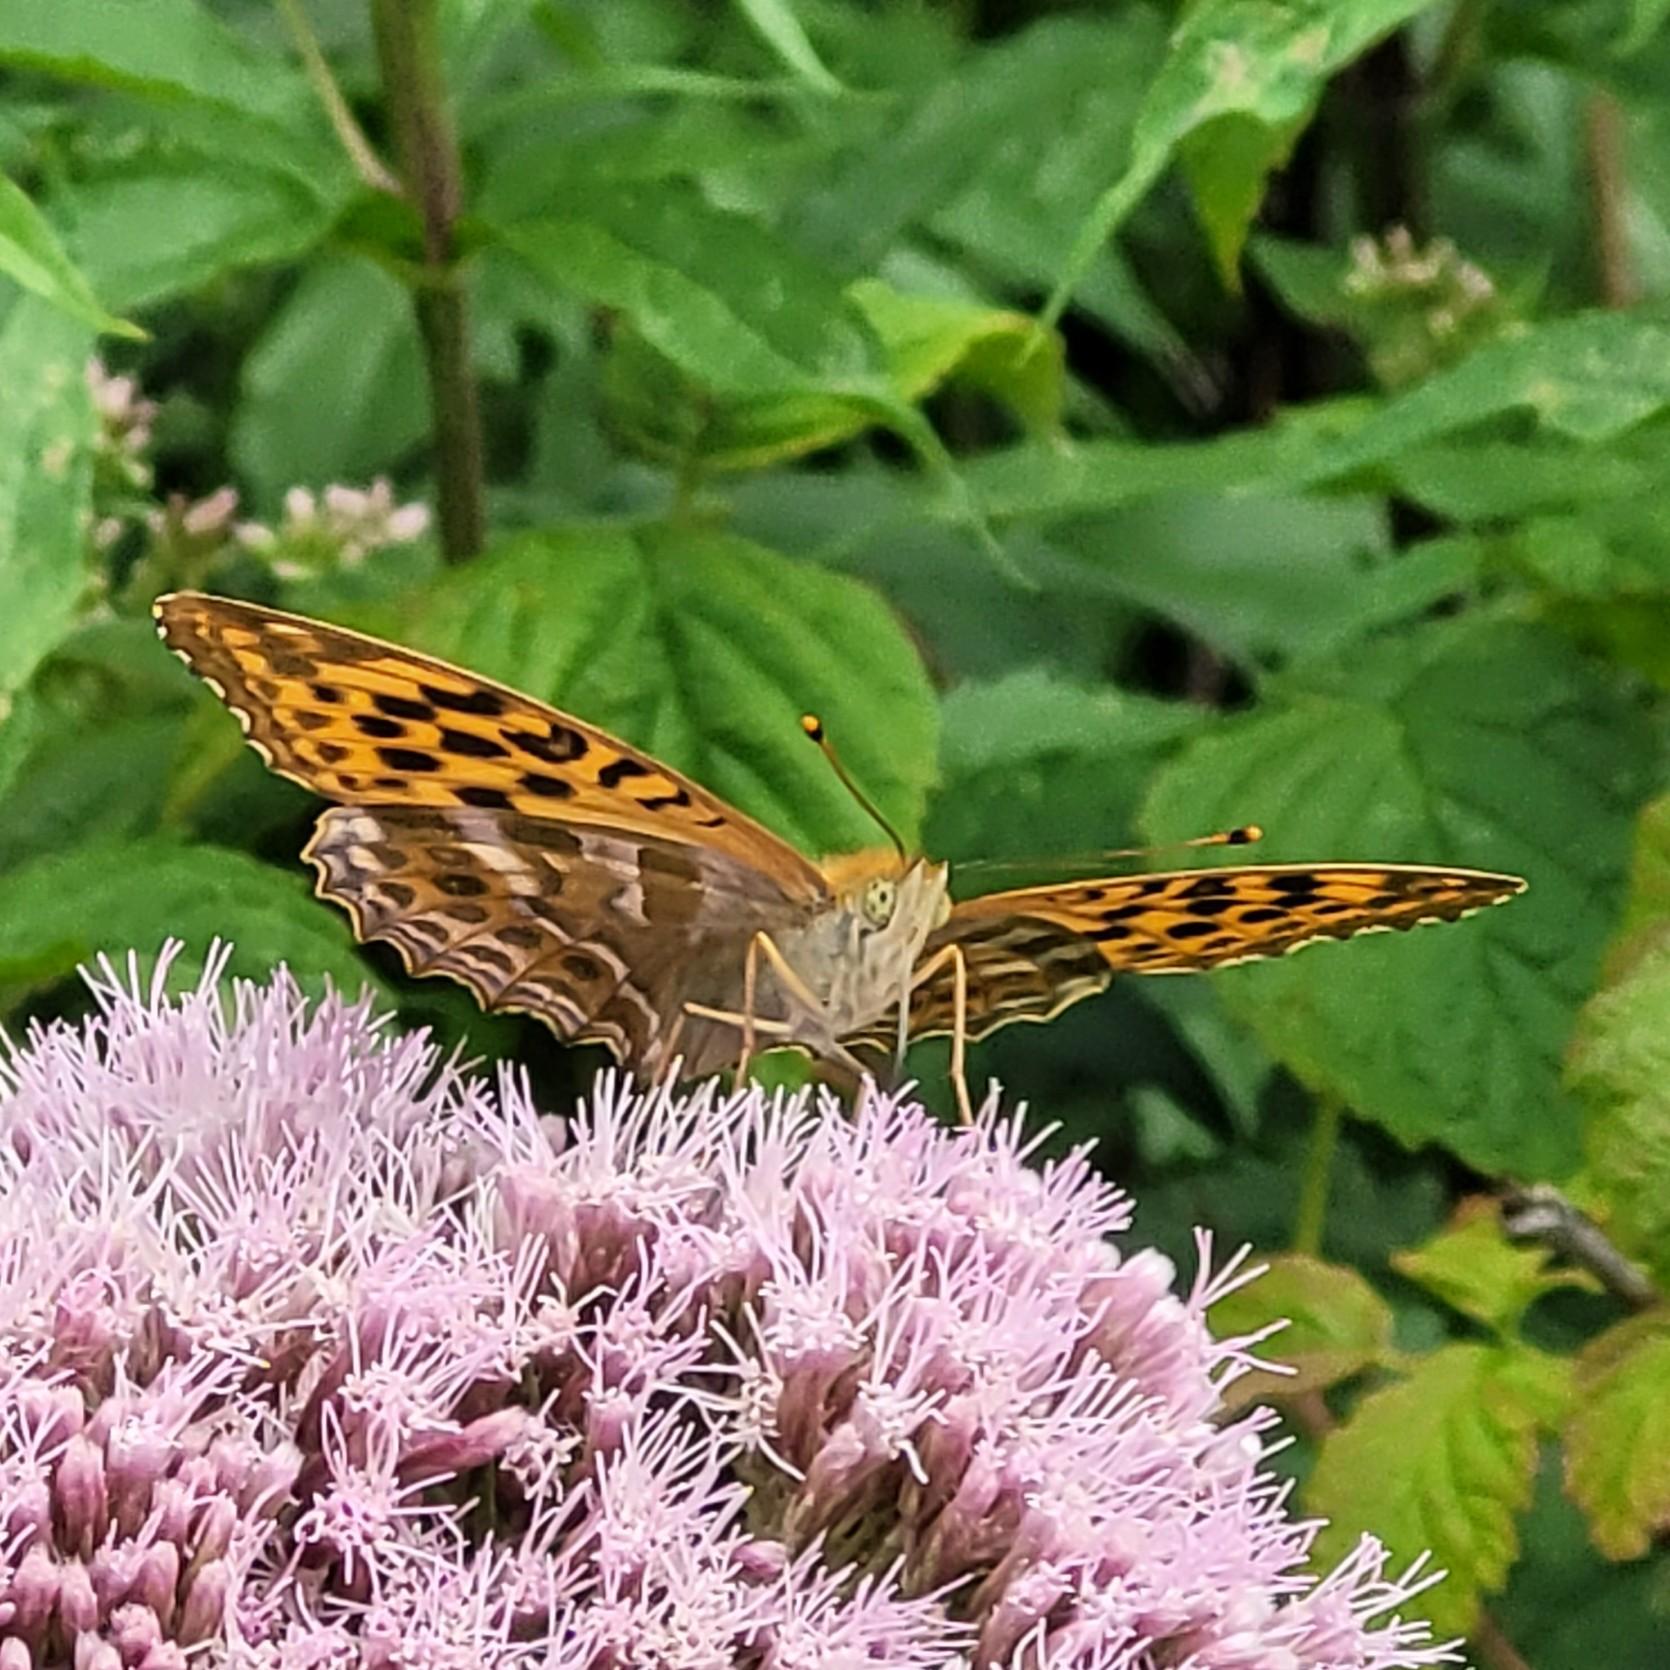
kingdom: Animalia
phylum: Arthropoda
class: Insecta
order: Lepidoptera
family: Nymphalidae
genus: Argynnis
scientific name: Argynnis paphia
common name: Kejserkåbe
